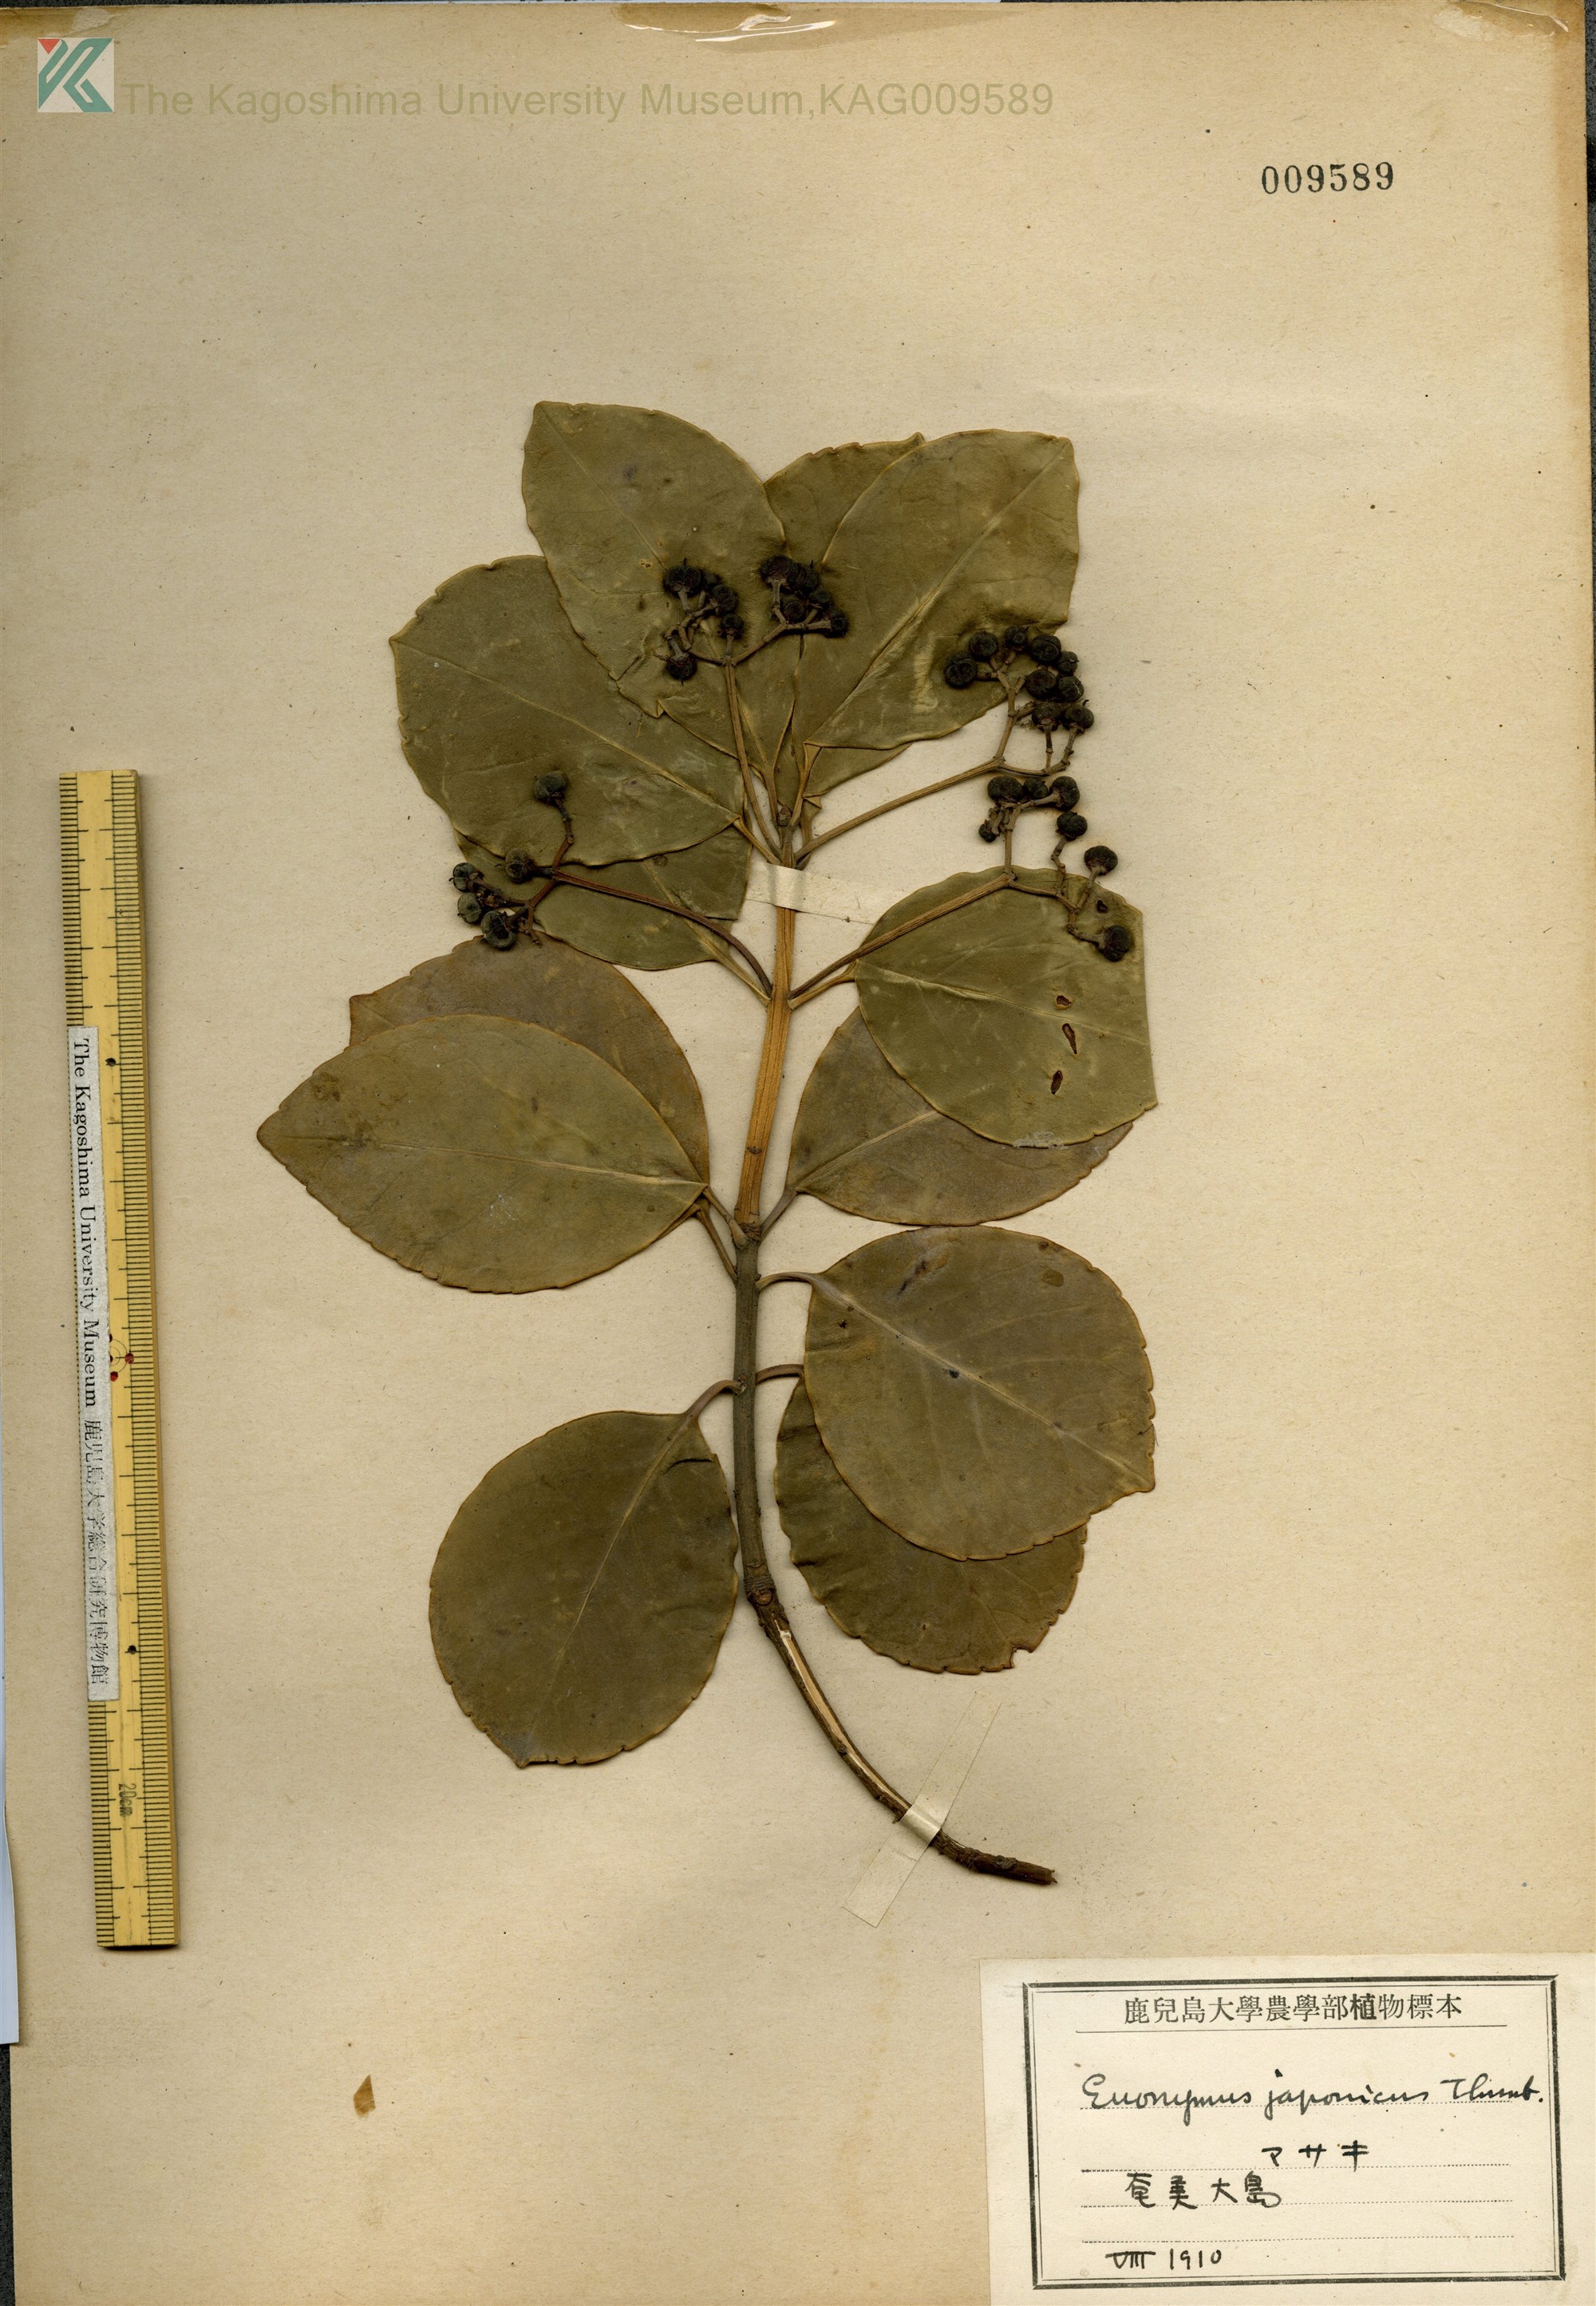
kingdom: Plantae
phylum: Tracheophyta
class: Magnoliopsida
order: Celastrales
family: Celastraceae
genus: Euonymus
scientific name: Euonymus japonicus
